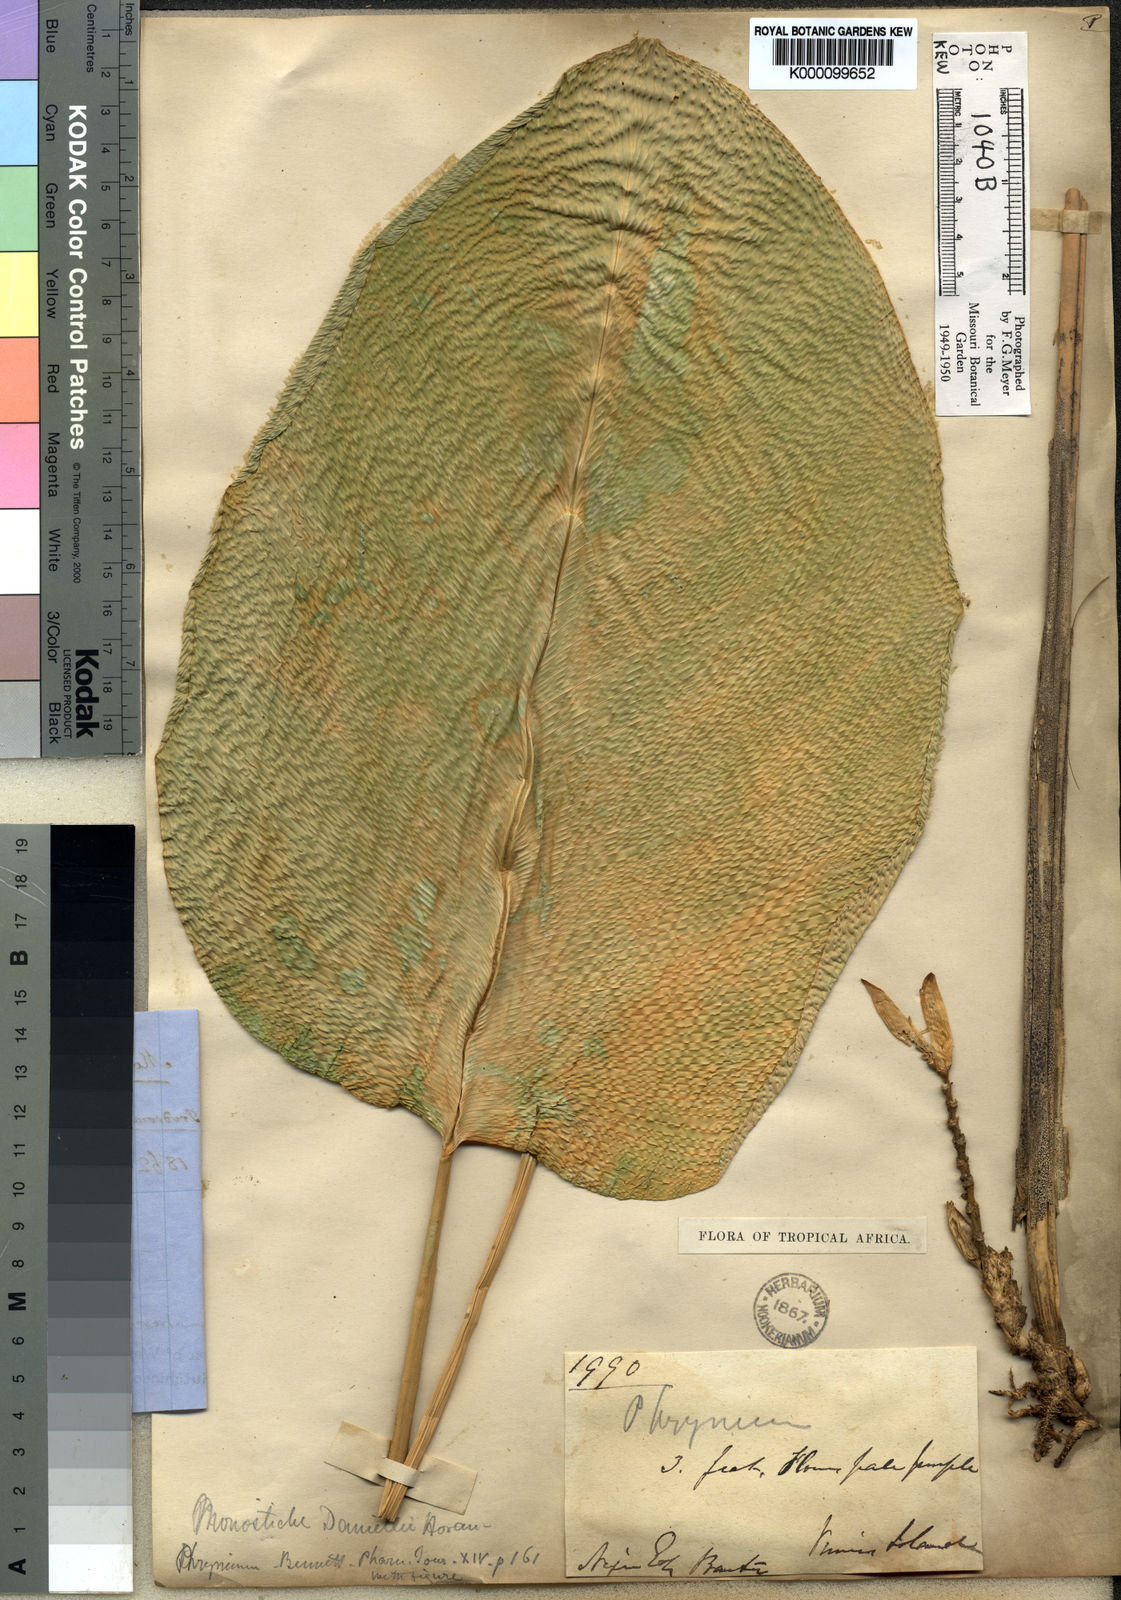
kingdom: Plantae
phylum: Tracheophyta
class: Liliopsida
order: Zingiberales
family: Marantaceae
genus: Thaumatococcus
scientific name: Thaumatococcus
